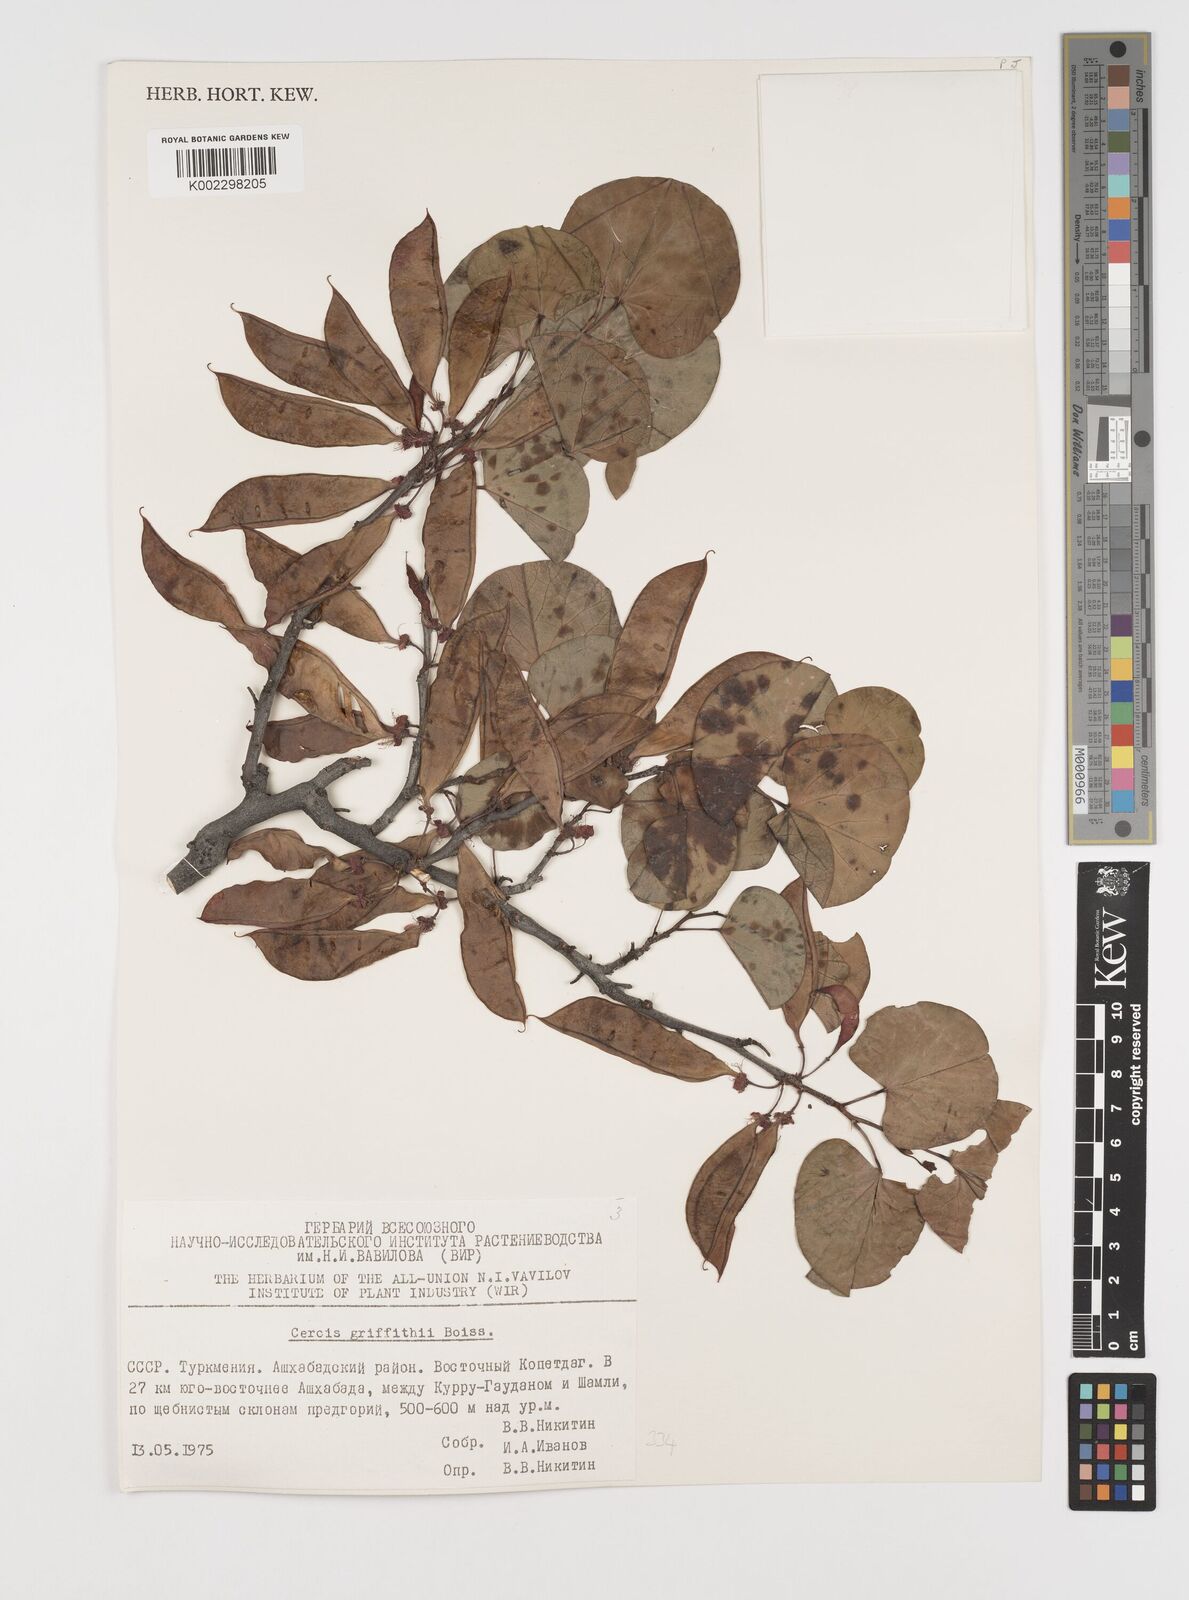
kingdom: Plantae
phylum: Tracheophyta
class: Magnoliopsida
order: Fabales
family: Fabaceae
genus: Cercis
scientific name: Cercis griffithii
